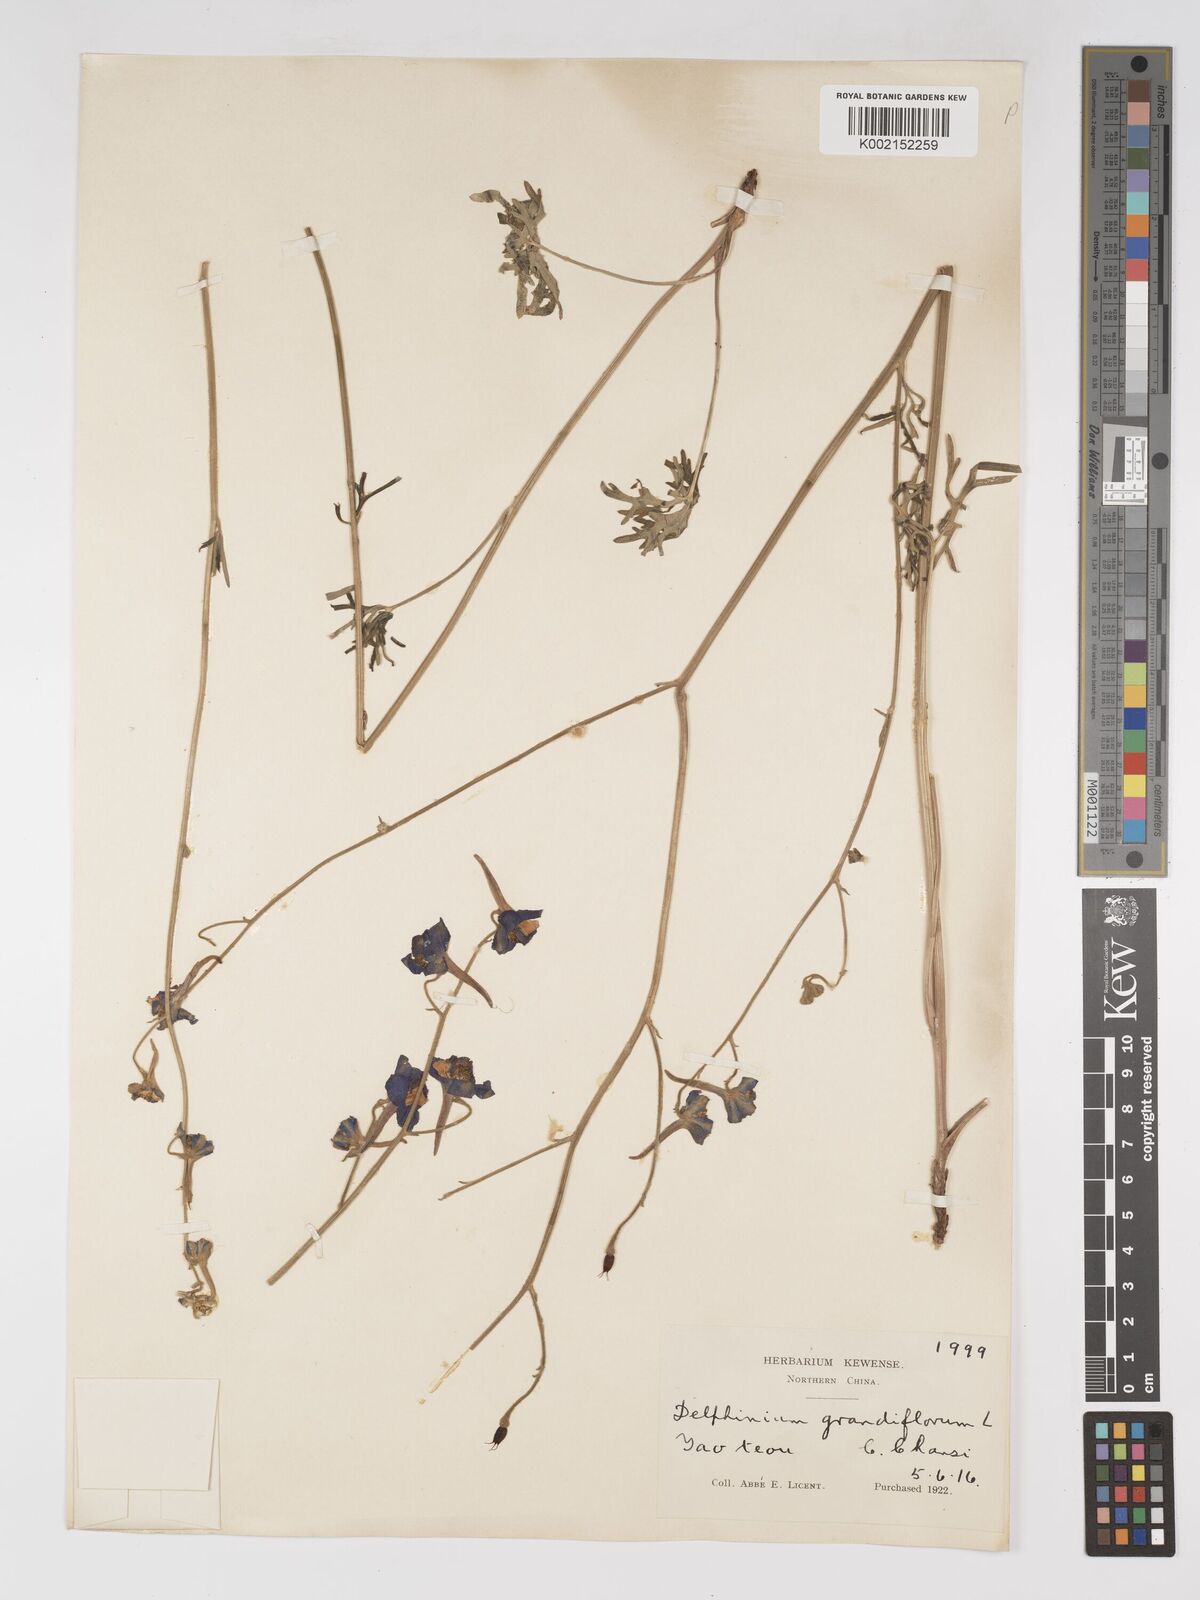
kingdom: Plantae
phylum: Tracheophyta
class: Magnoliopsida
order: Ranunculales
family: Ranunculaceae
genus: Delphinium
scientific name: Delphinium grandiflorum
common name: Siberian larkspur
